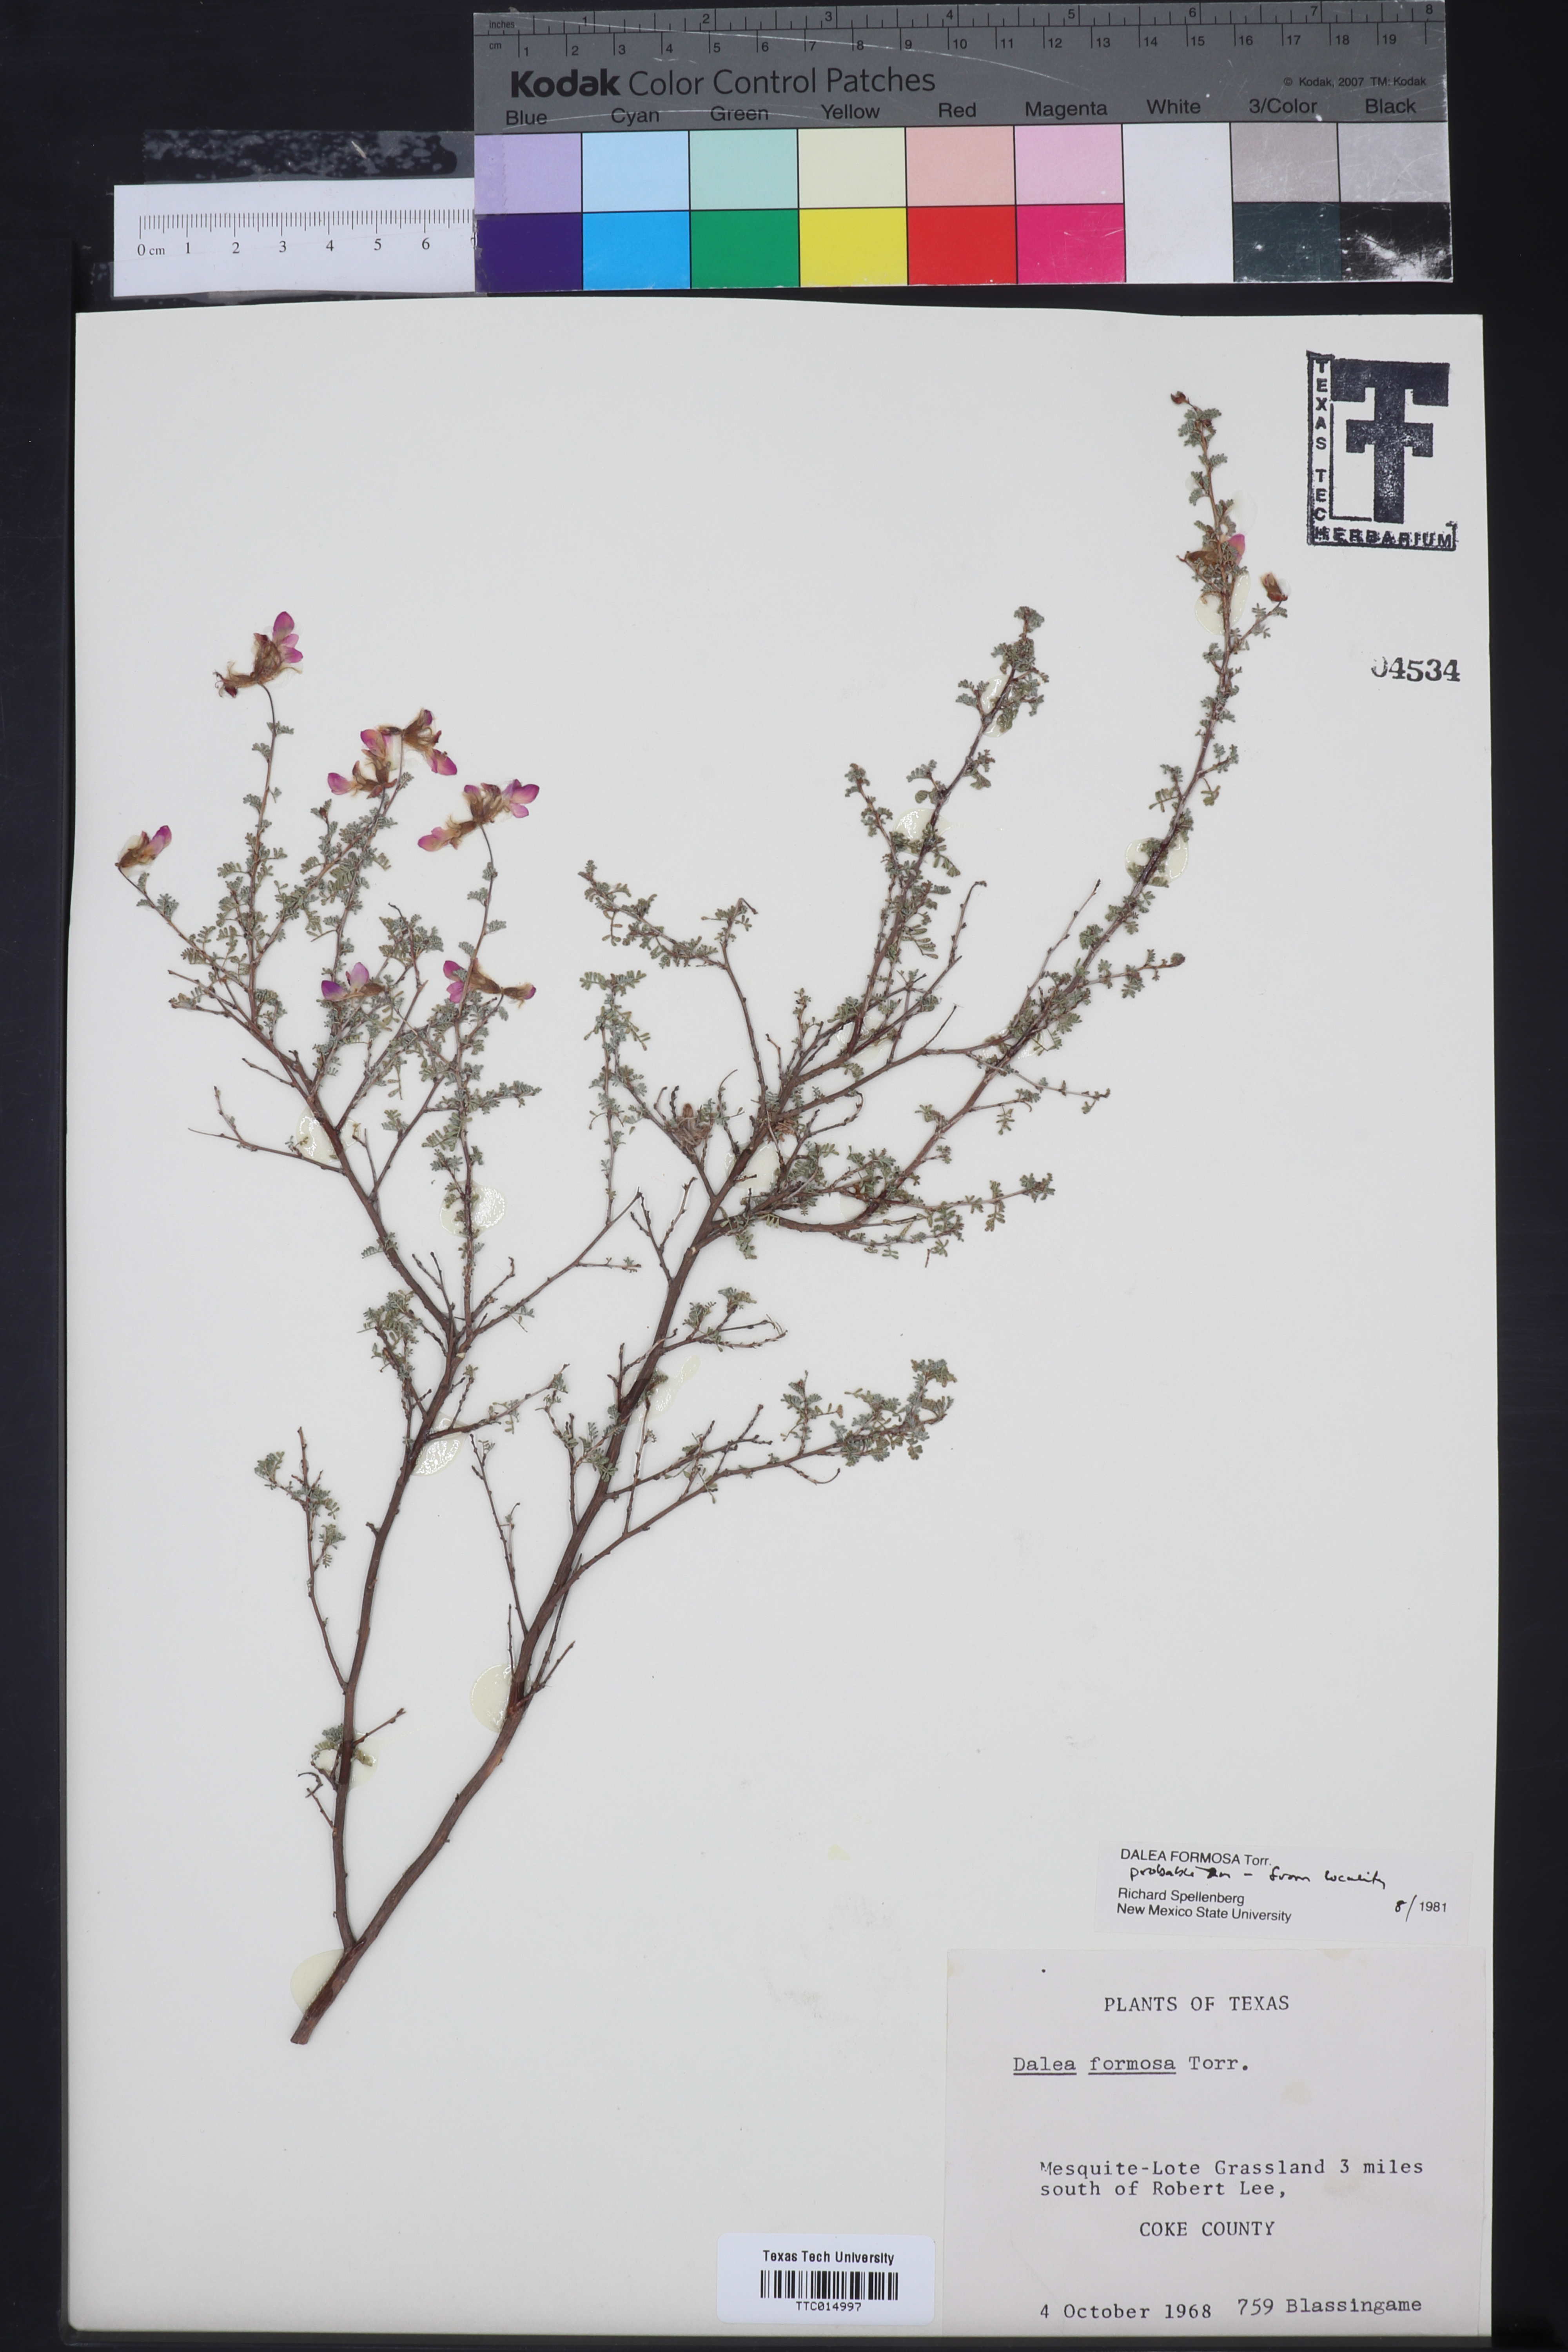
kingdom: Plantae
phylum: Tracheophyta
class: Magnoliopsida
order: Fabales
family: Fabaceae
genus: Dalea
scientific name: Dalea formosa
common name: Feather-plume dalea
